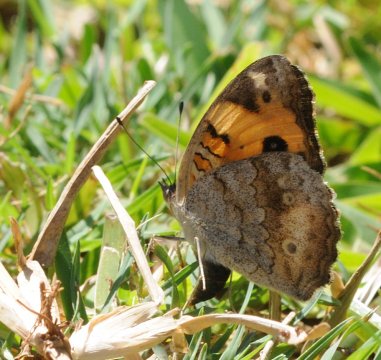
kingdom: Animalia
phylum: Arthropoda
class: Insecta
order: Lepidoptera
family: Nymphalidae
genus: Junonia
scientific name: Junonia hierta
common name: Yellow Pansy
